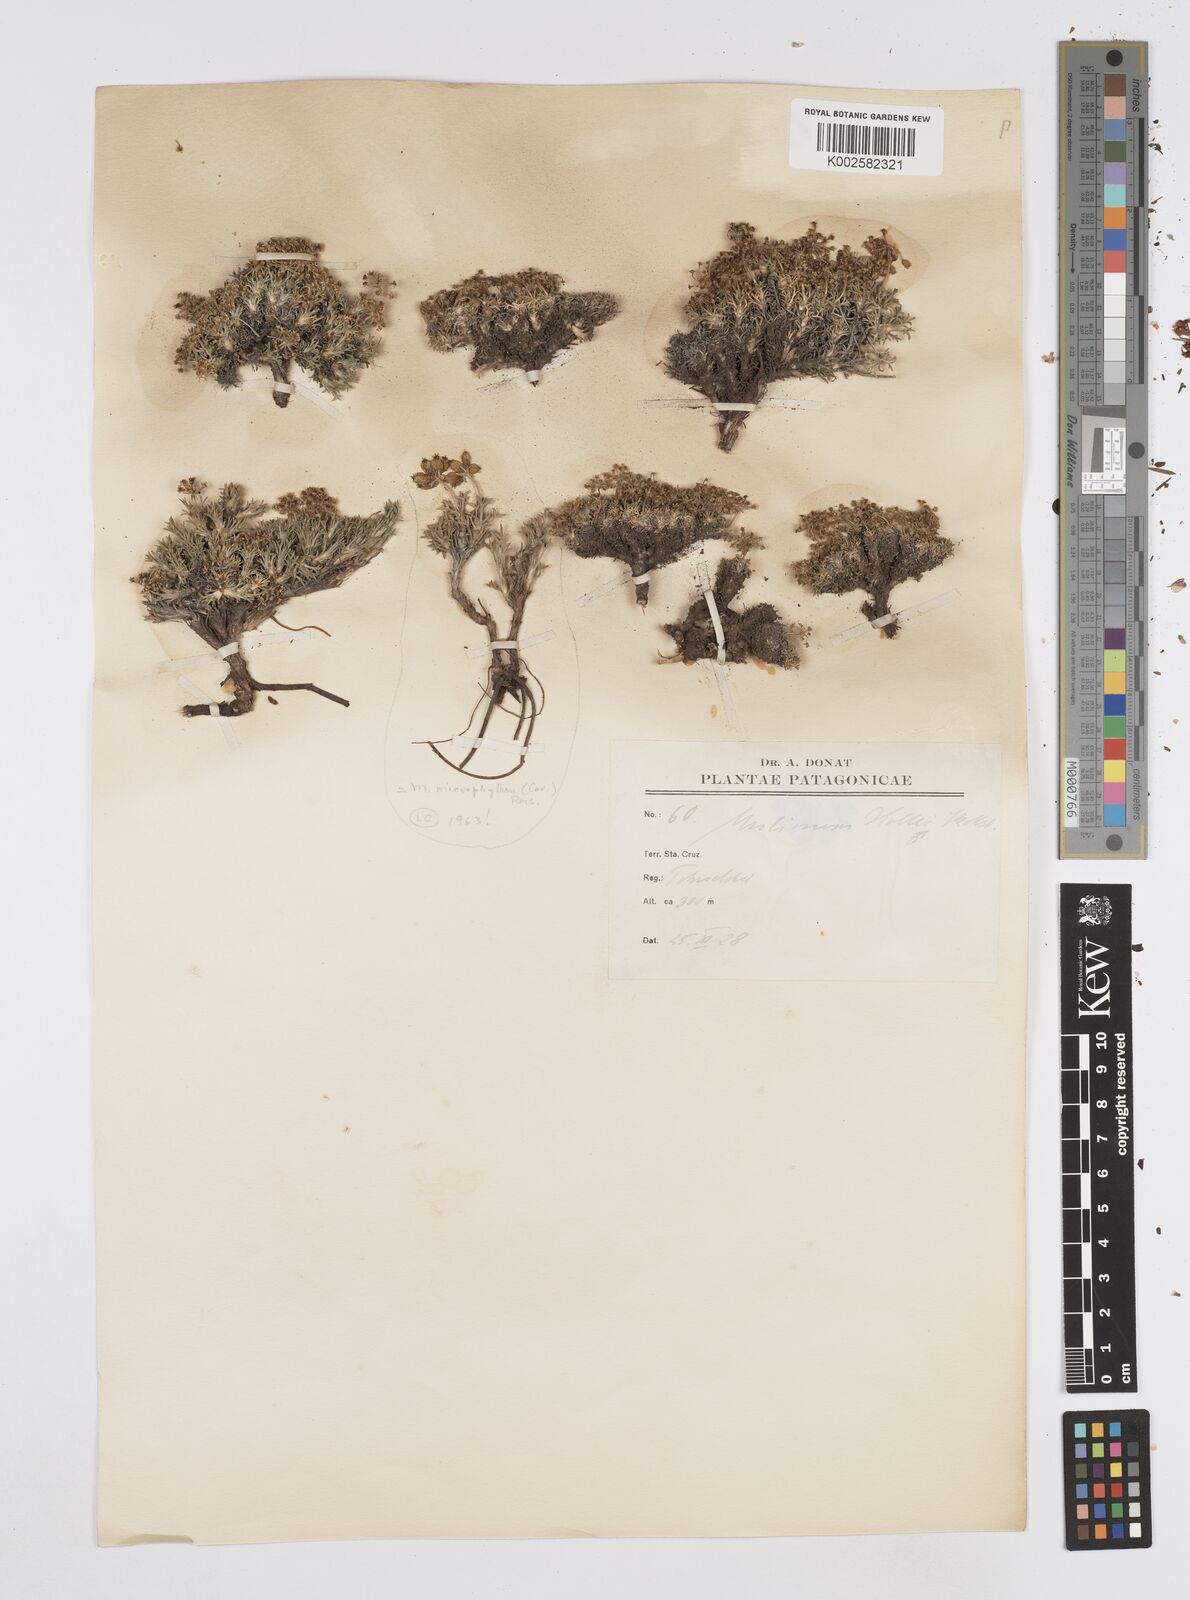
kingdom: Plantae
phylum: Tracheophyta
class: Magnoliopsida
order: Apiales
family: Apiaceae
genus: Azorella
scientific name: Azorella hallei
